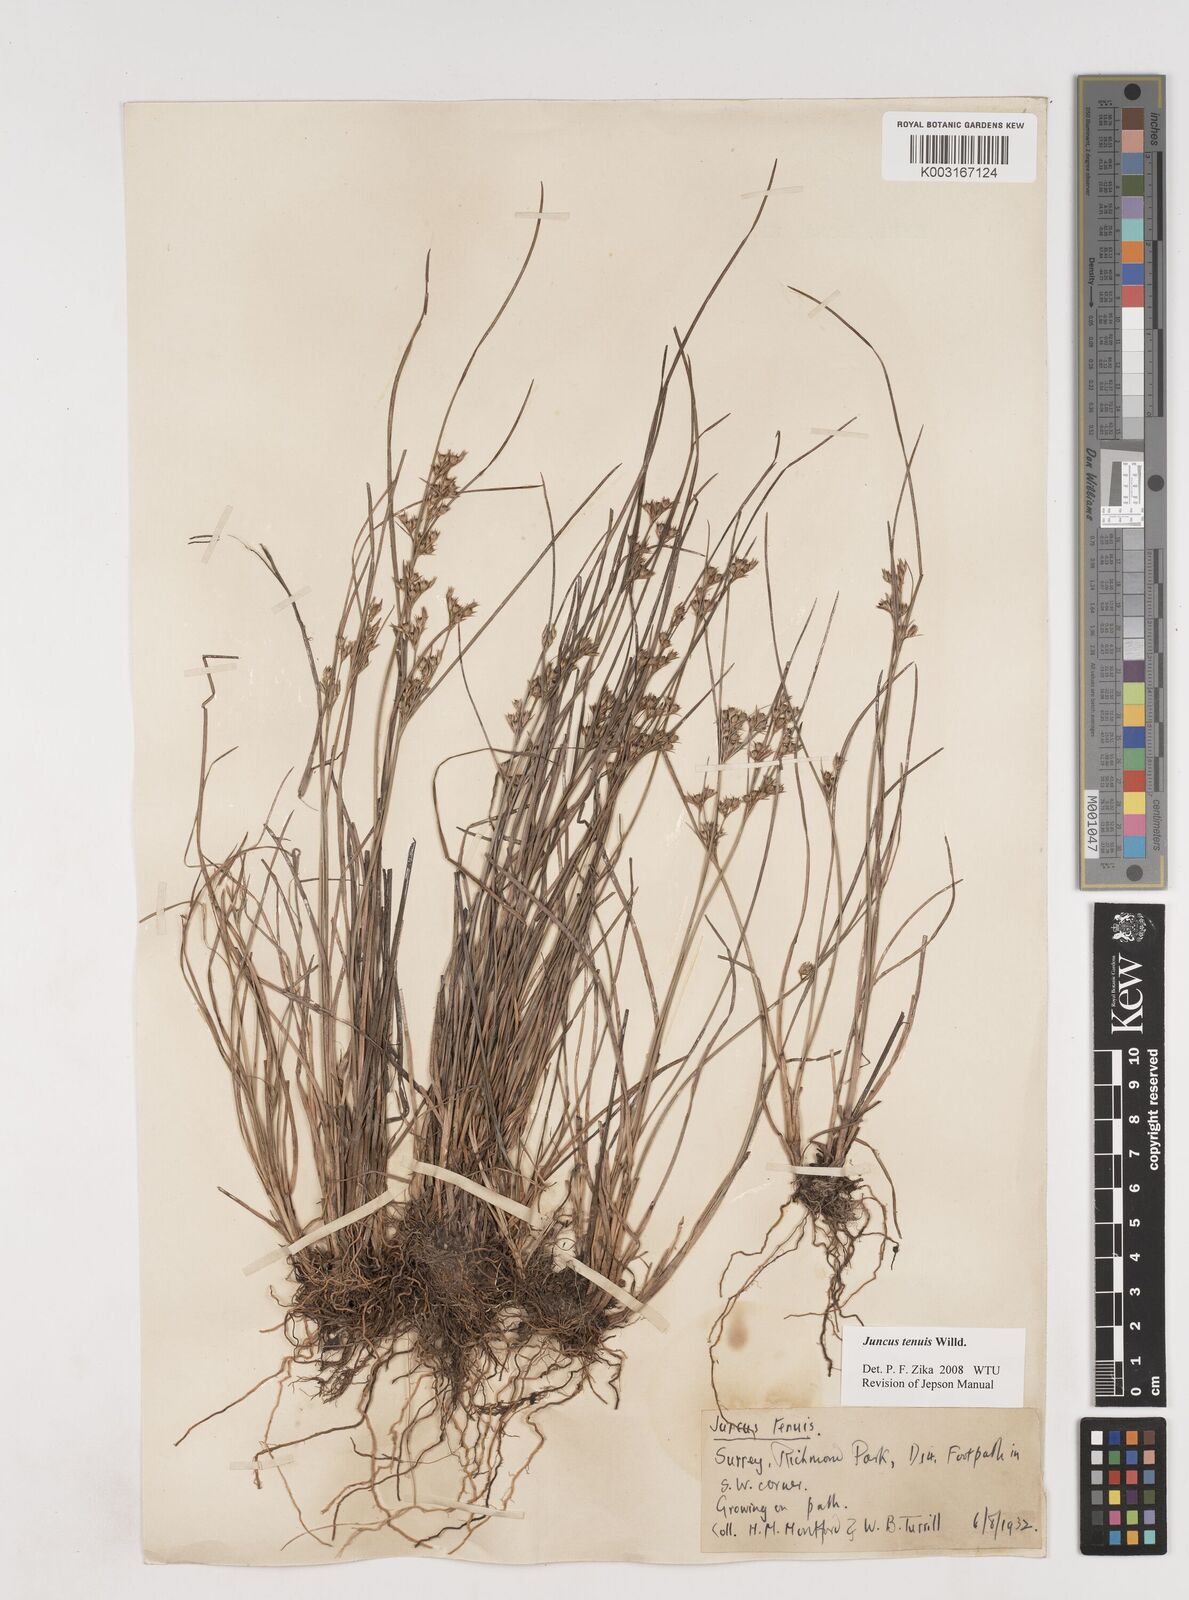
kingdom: Plantae
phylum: Tracheophyta
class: Liliopsida
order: Poales
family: Juncaceae
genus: Juncus
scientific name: Juncus tenuis
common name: Slender rush
